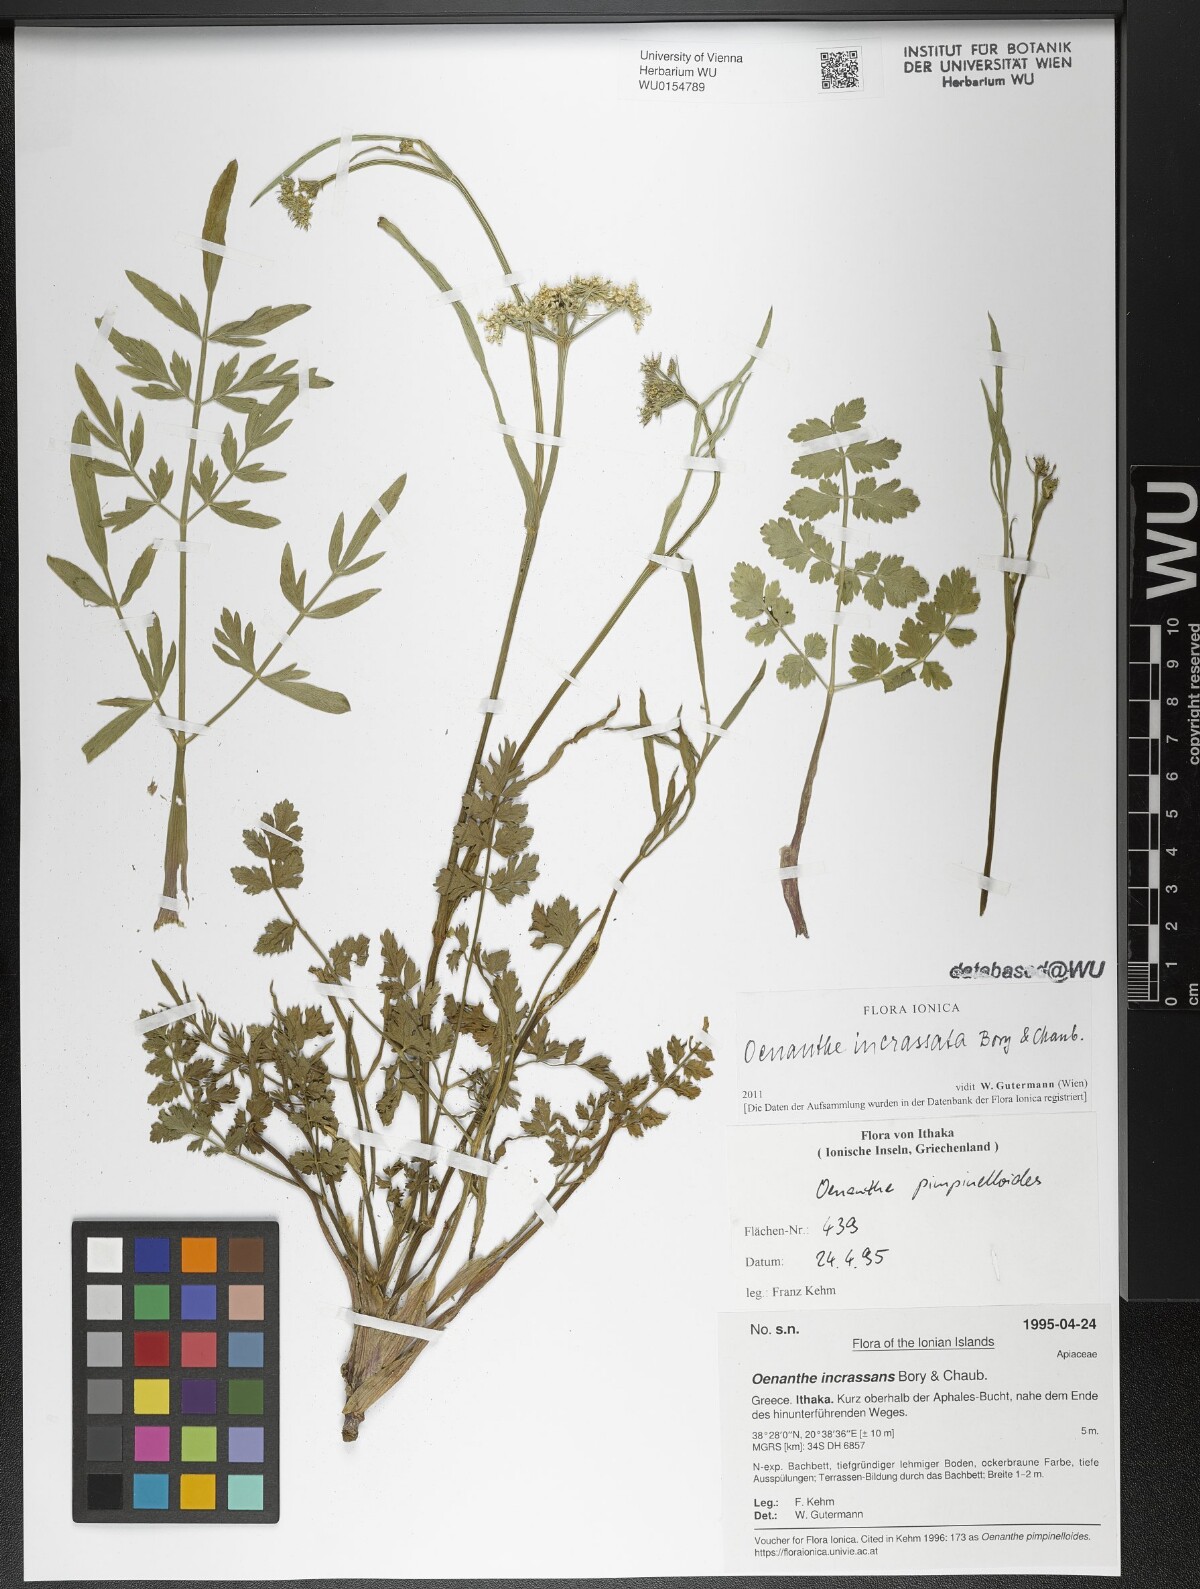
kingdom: Plantae
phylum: Tracheophyta
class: Magnoliopsida
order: Apiales
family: Apiaceae
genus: Oenanthe
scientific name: Oenanthe pimpinelloides
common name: Corky-fruited water-dropwort
